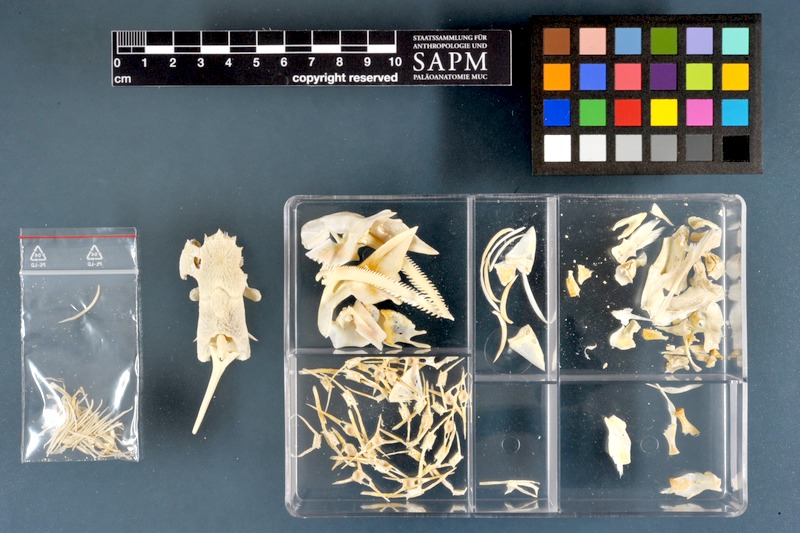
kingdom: Animalia
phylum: Chordata
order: Siluriformes
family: Mochokidae
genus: Synodontis
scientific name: Synodontis serratus
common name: Shield-head catfish
